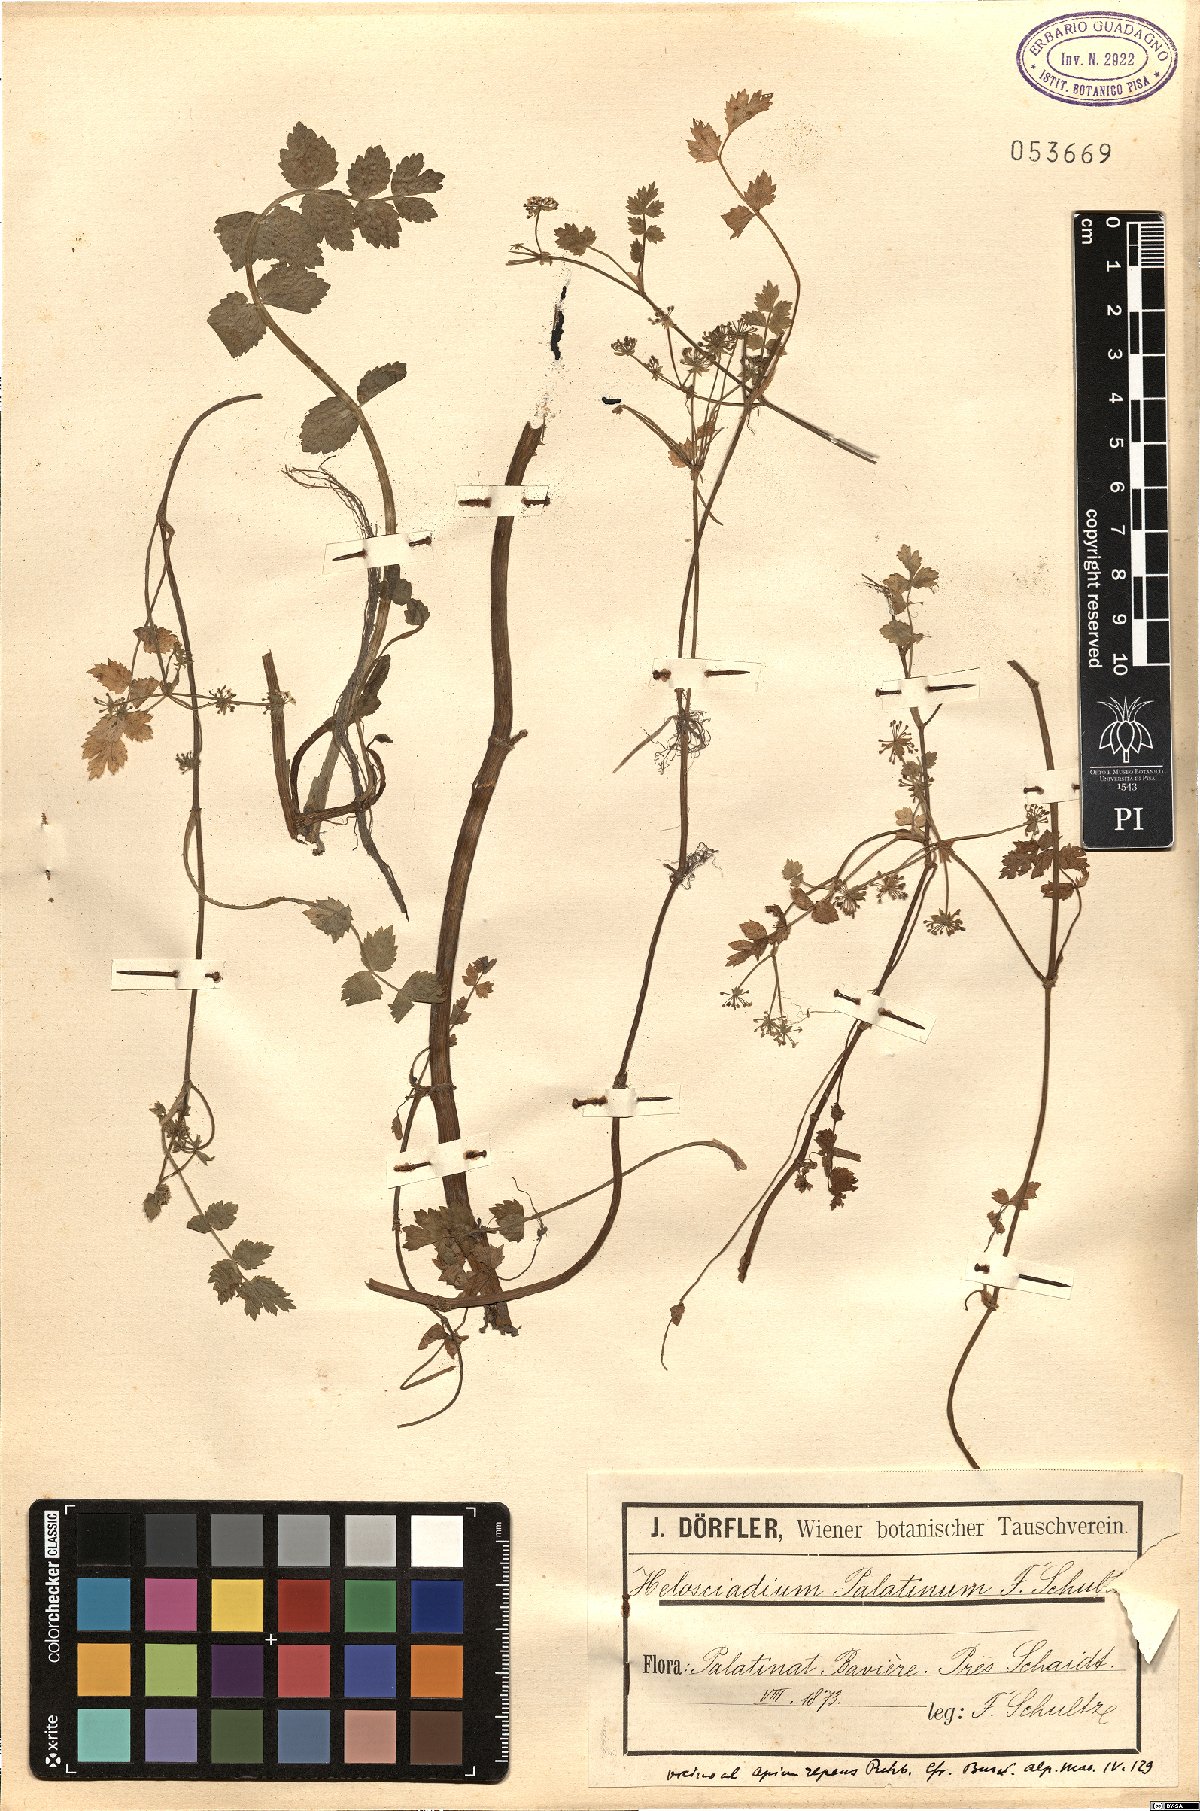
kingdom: Plantae
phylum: Tracheophyta
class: Magnoliopsida
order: Apiales
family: Apiaceae
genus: Helosciadium
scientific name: Helosciadium nodiflorum
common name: Fool's-watercress
